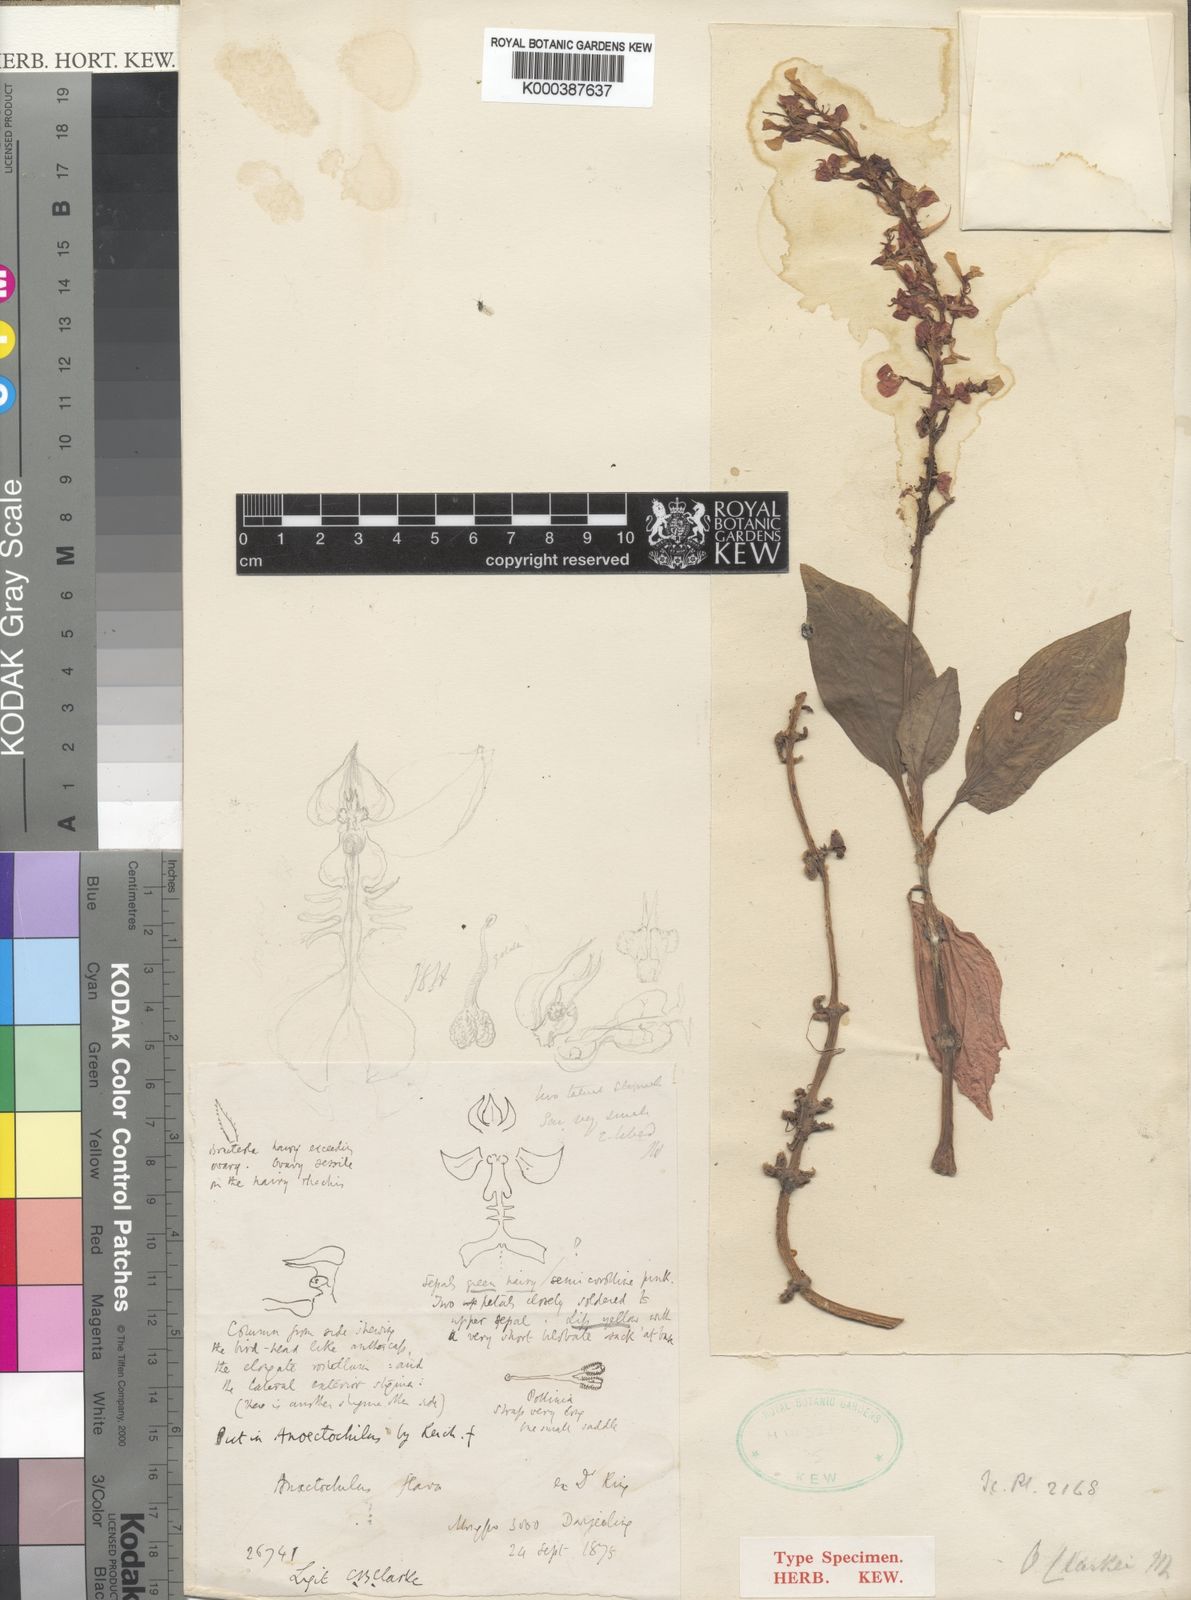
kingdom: Plantae
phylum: Tracheophyta
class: Liliopsida
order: Asparagales
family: Orchidaceae
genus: Odontochilus
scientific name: Odontochilus clarkei
